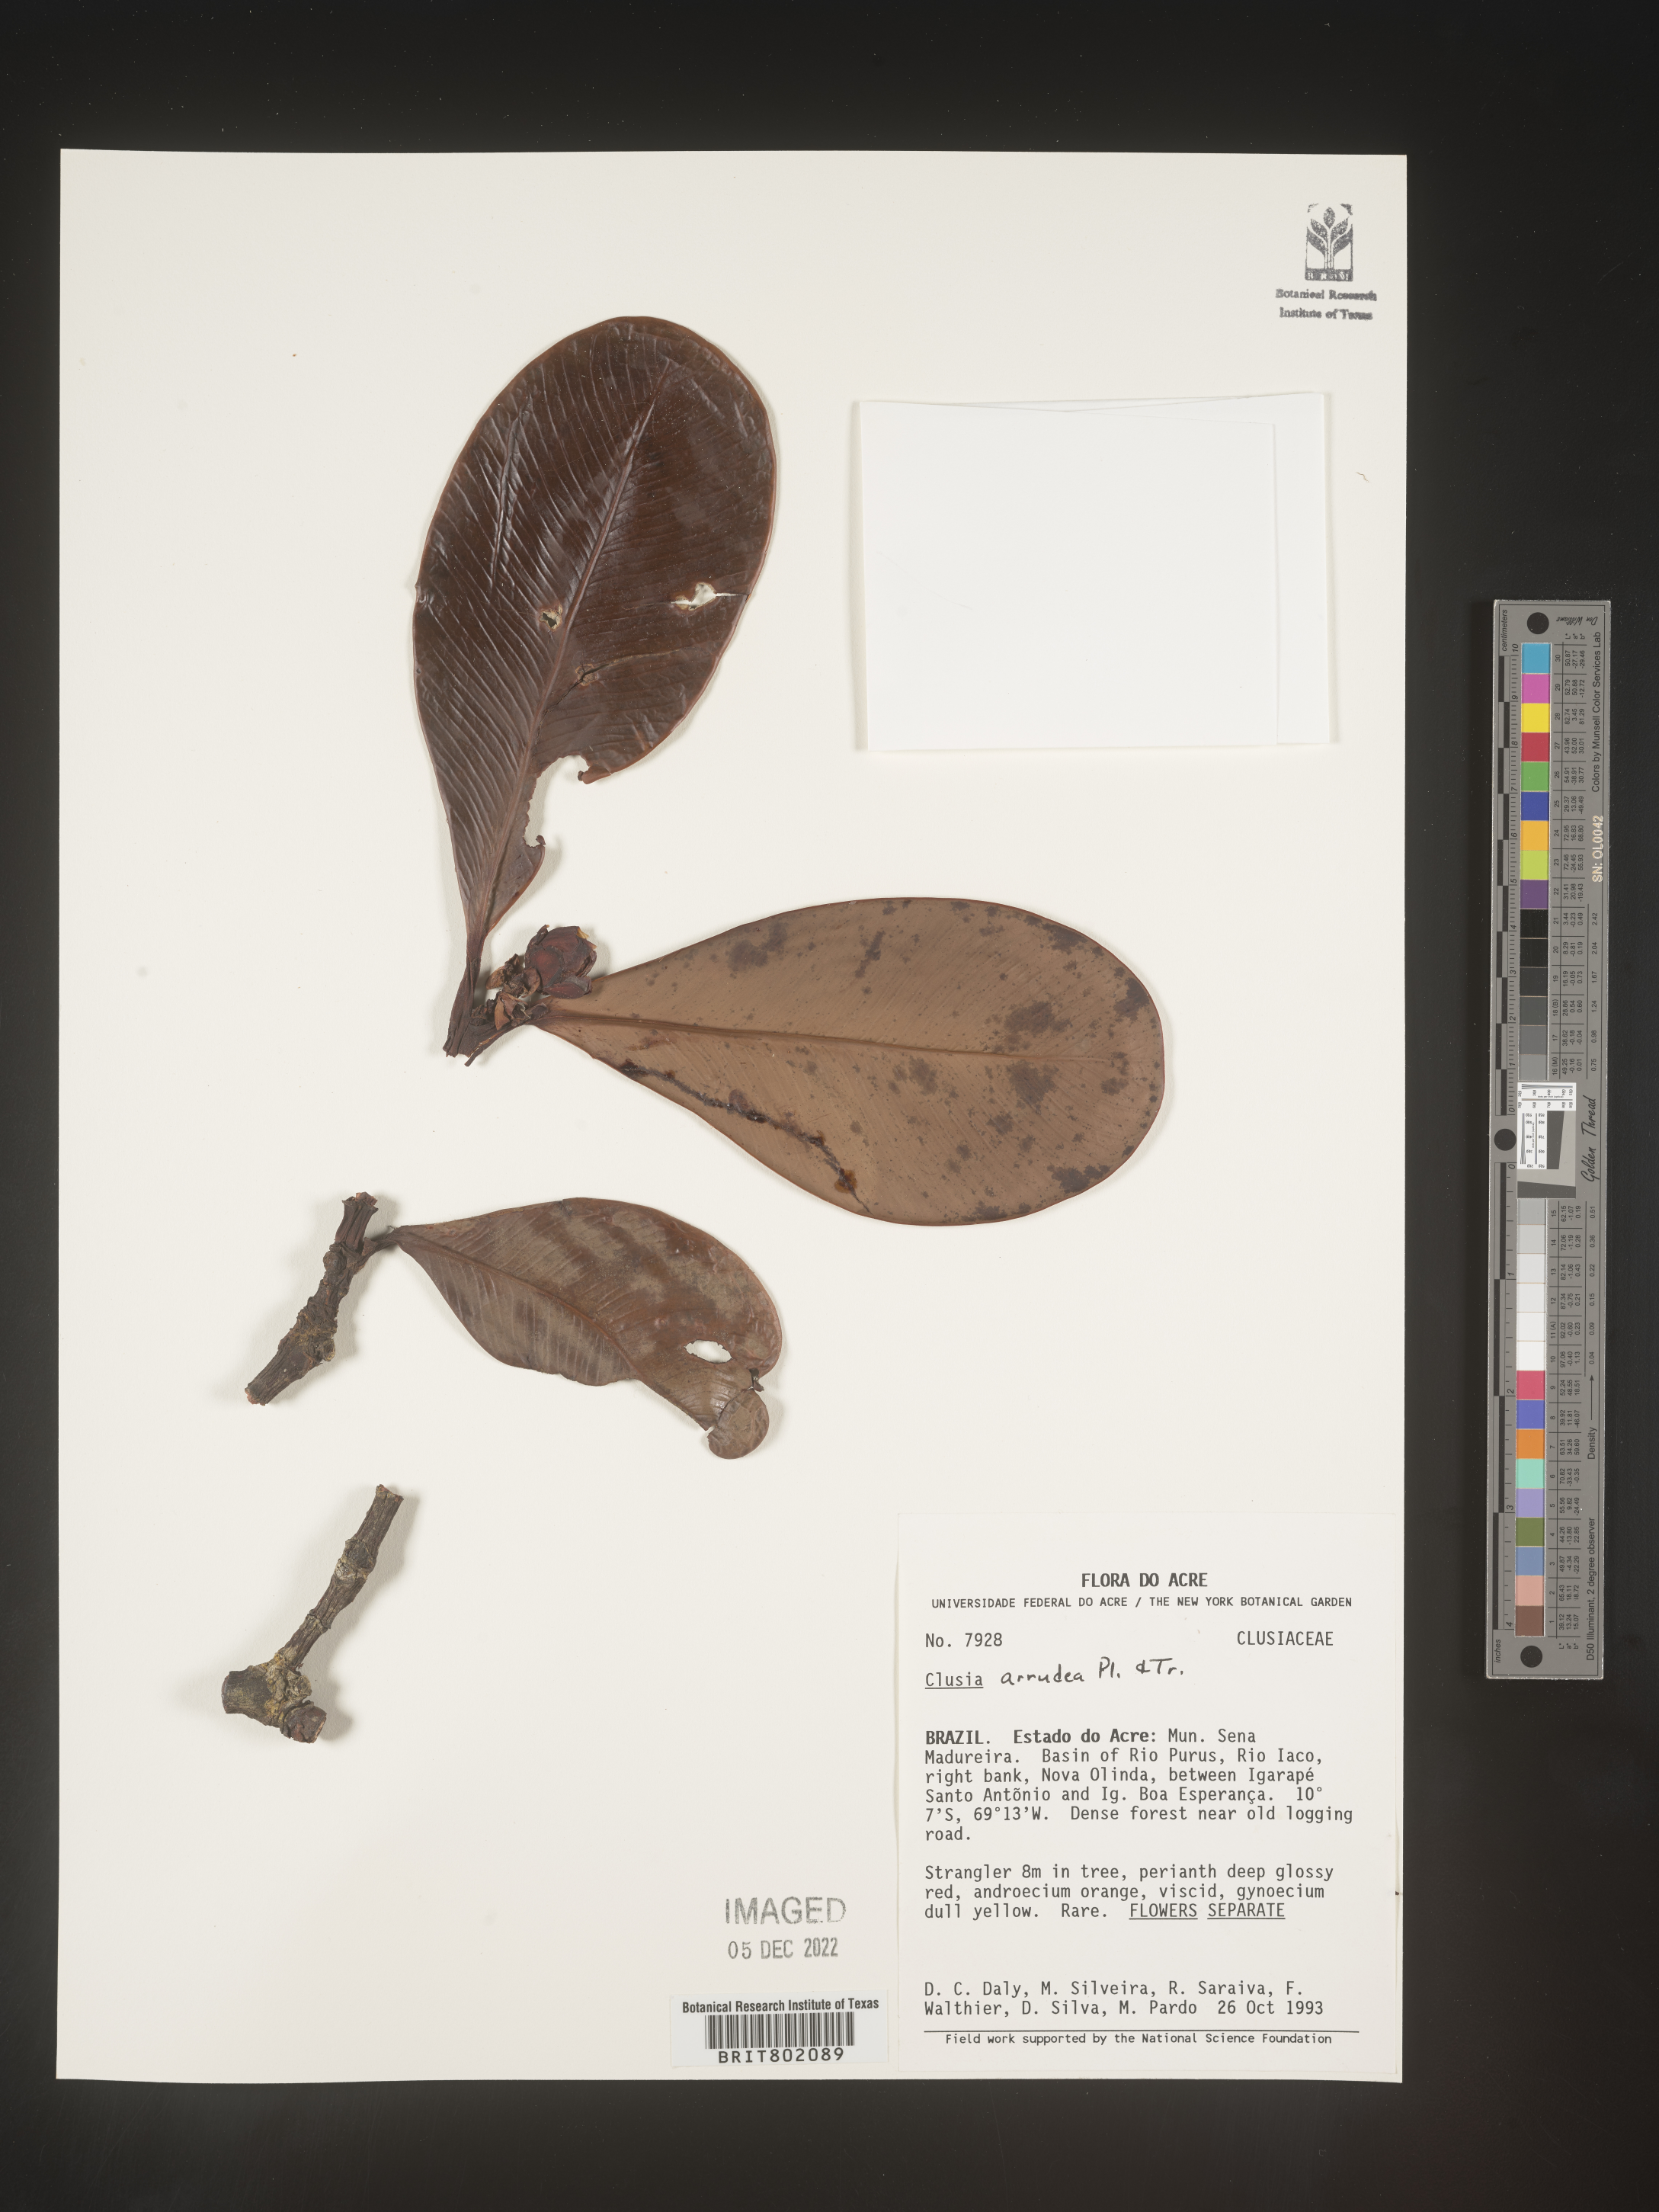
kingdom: Plantae
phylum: Tracheophyta
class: Magnoliopsida
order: Malpighiales
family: Clusiaceae
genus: Clusia
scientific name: Clusia mexiae
